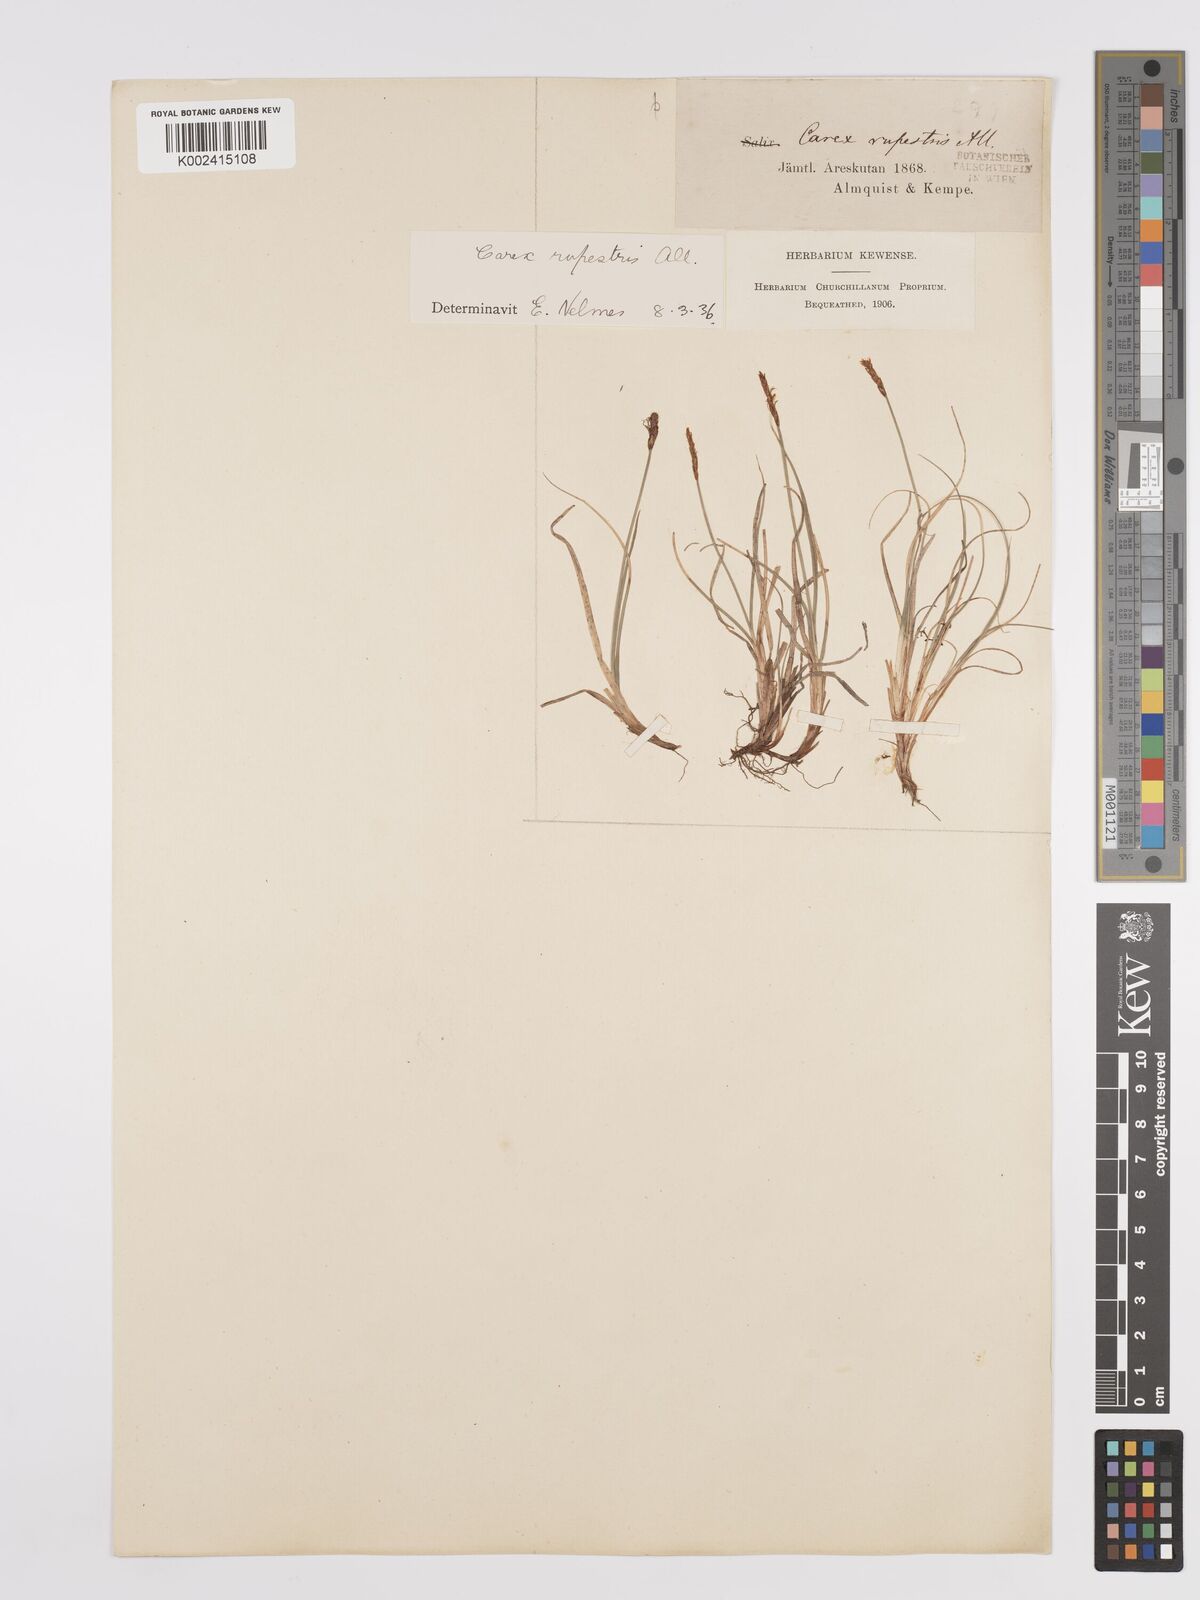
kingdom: Plantae
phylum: Tracheophyta
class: Liliopsida
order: Poales
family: Cyperaceae
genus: Carex
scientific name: Carex rupestris
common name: Rock sedge
